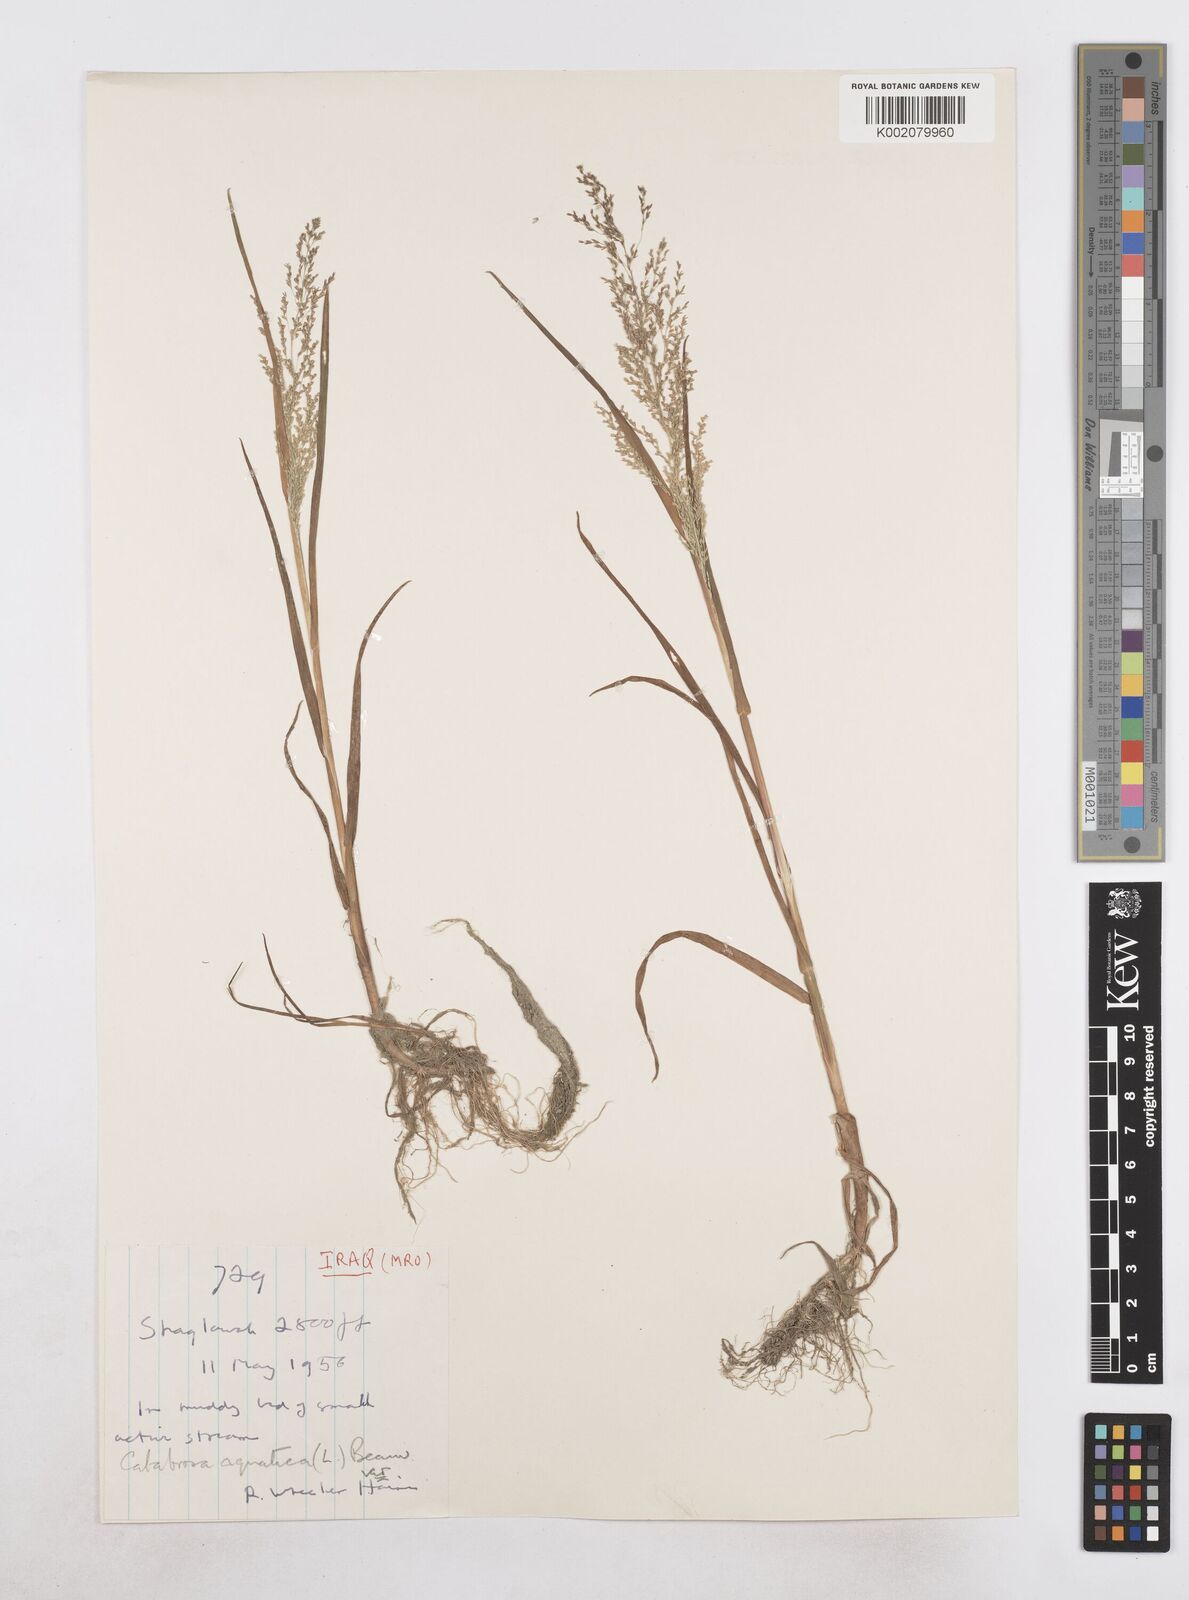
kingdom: Plantae
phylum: Tracheophyta
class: Liliopsida
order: Poales
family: Poaceae
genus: Catabrosa
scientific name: Catabrosa aquatica
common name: Whorl-grass
